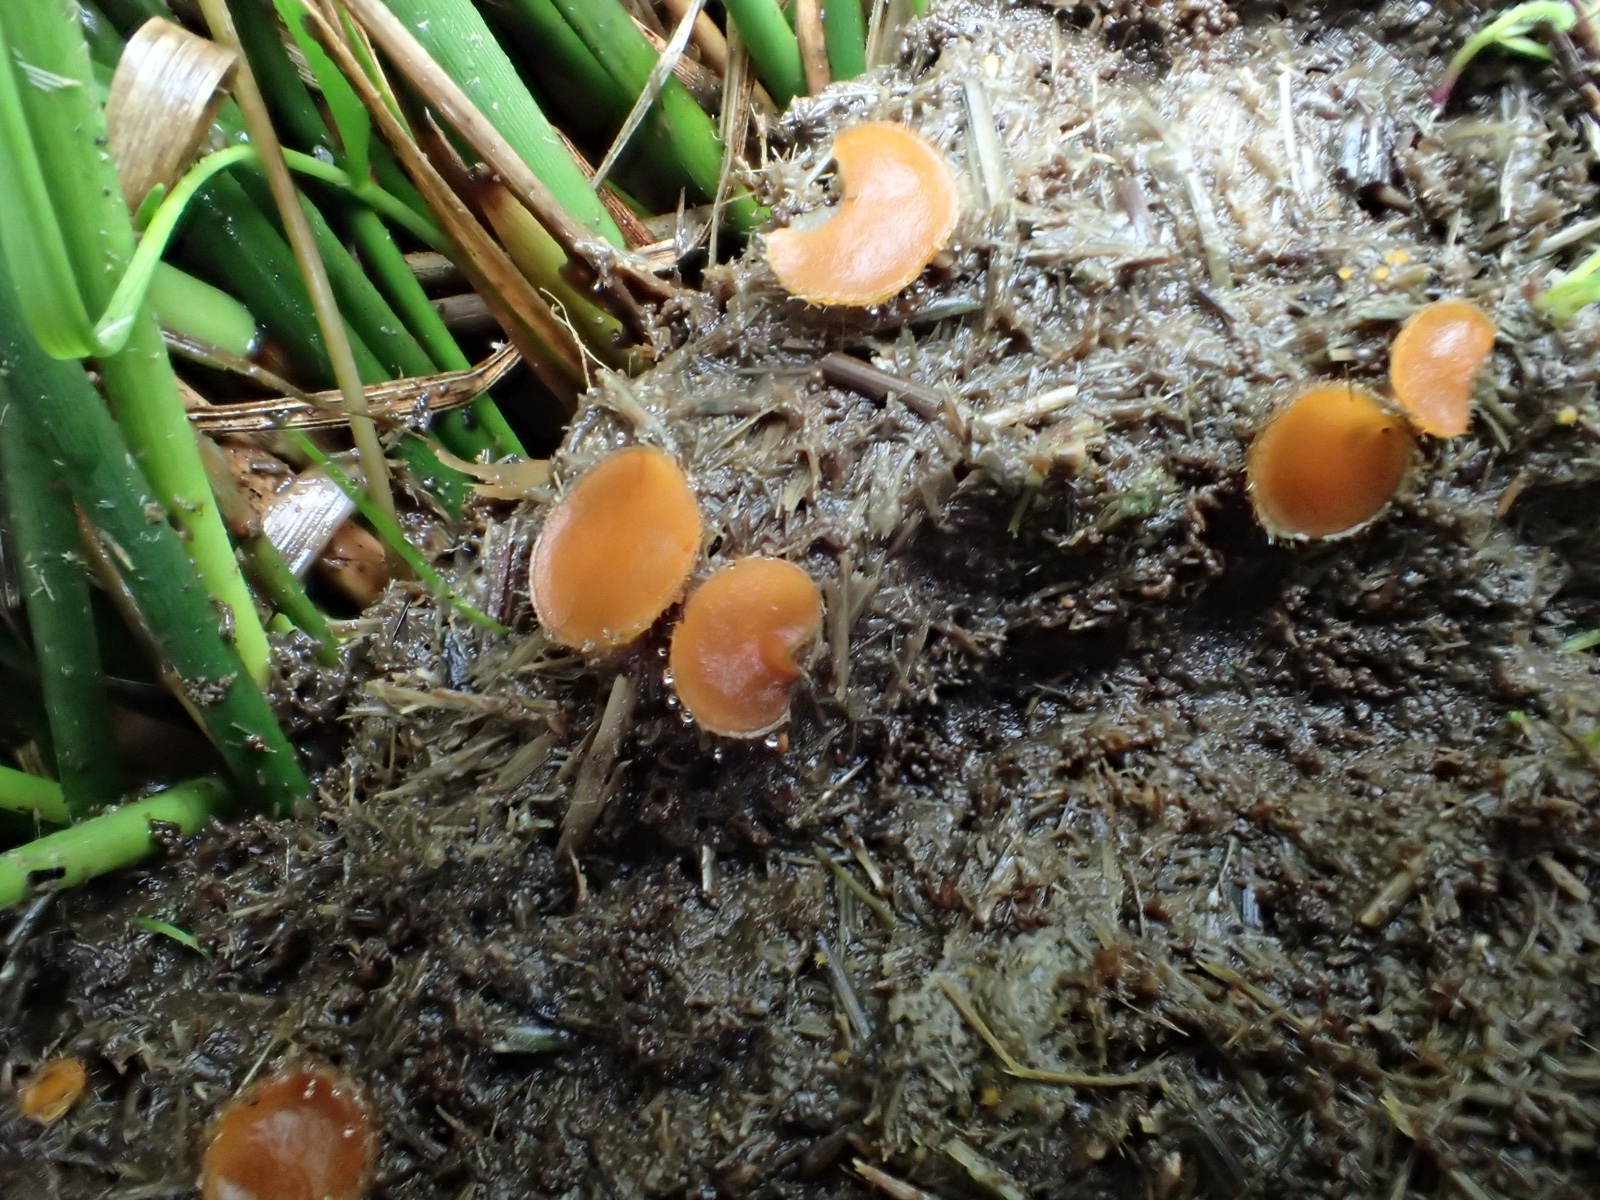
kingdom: Fungi
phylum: Ascomycota
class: Pezizomycetes
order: Pezizales
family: Pyronemataceae
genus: Cheilymenia
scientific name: Cheilymenia
